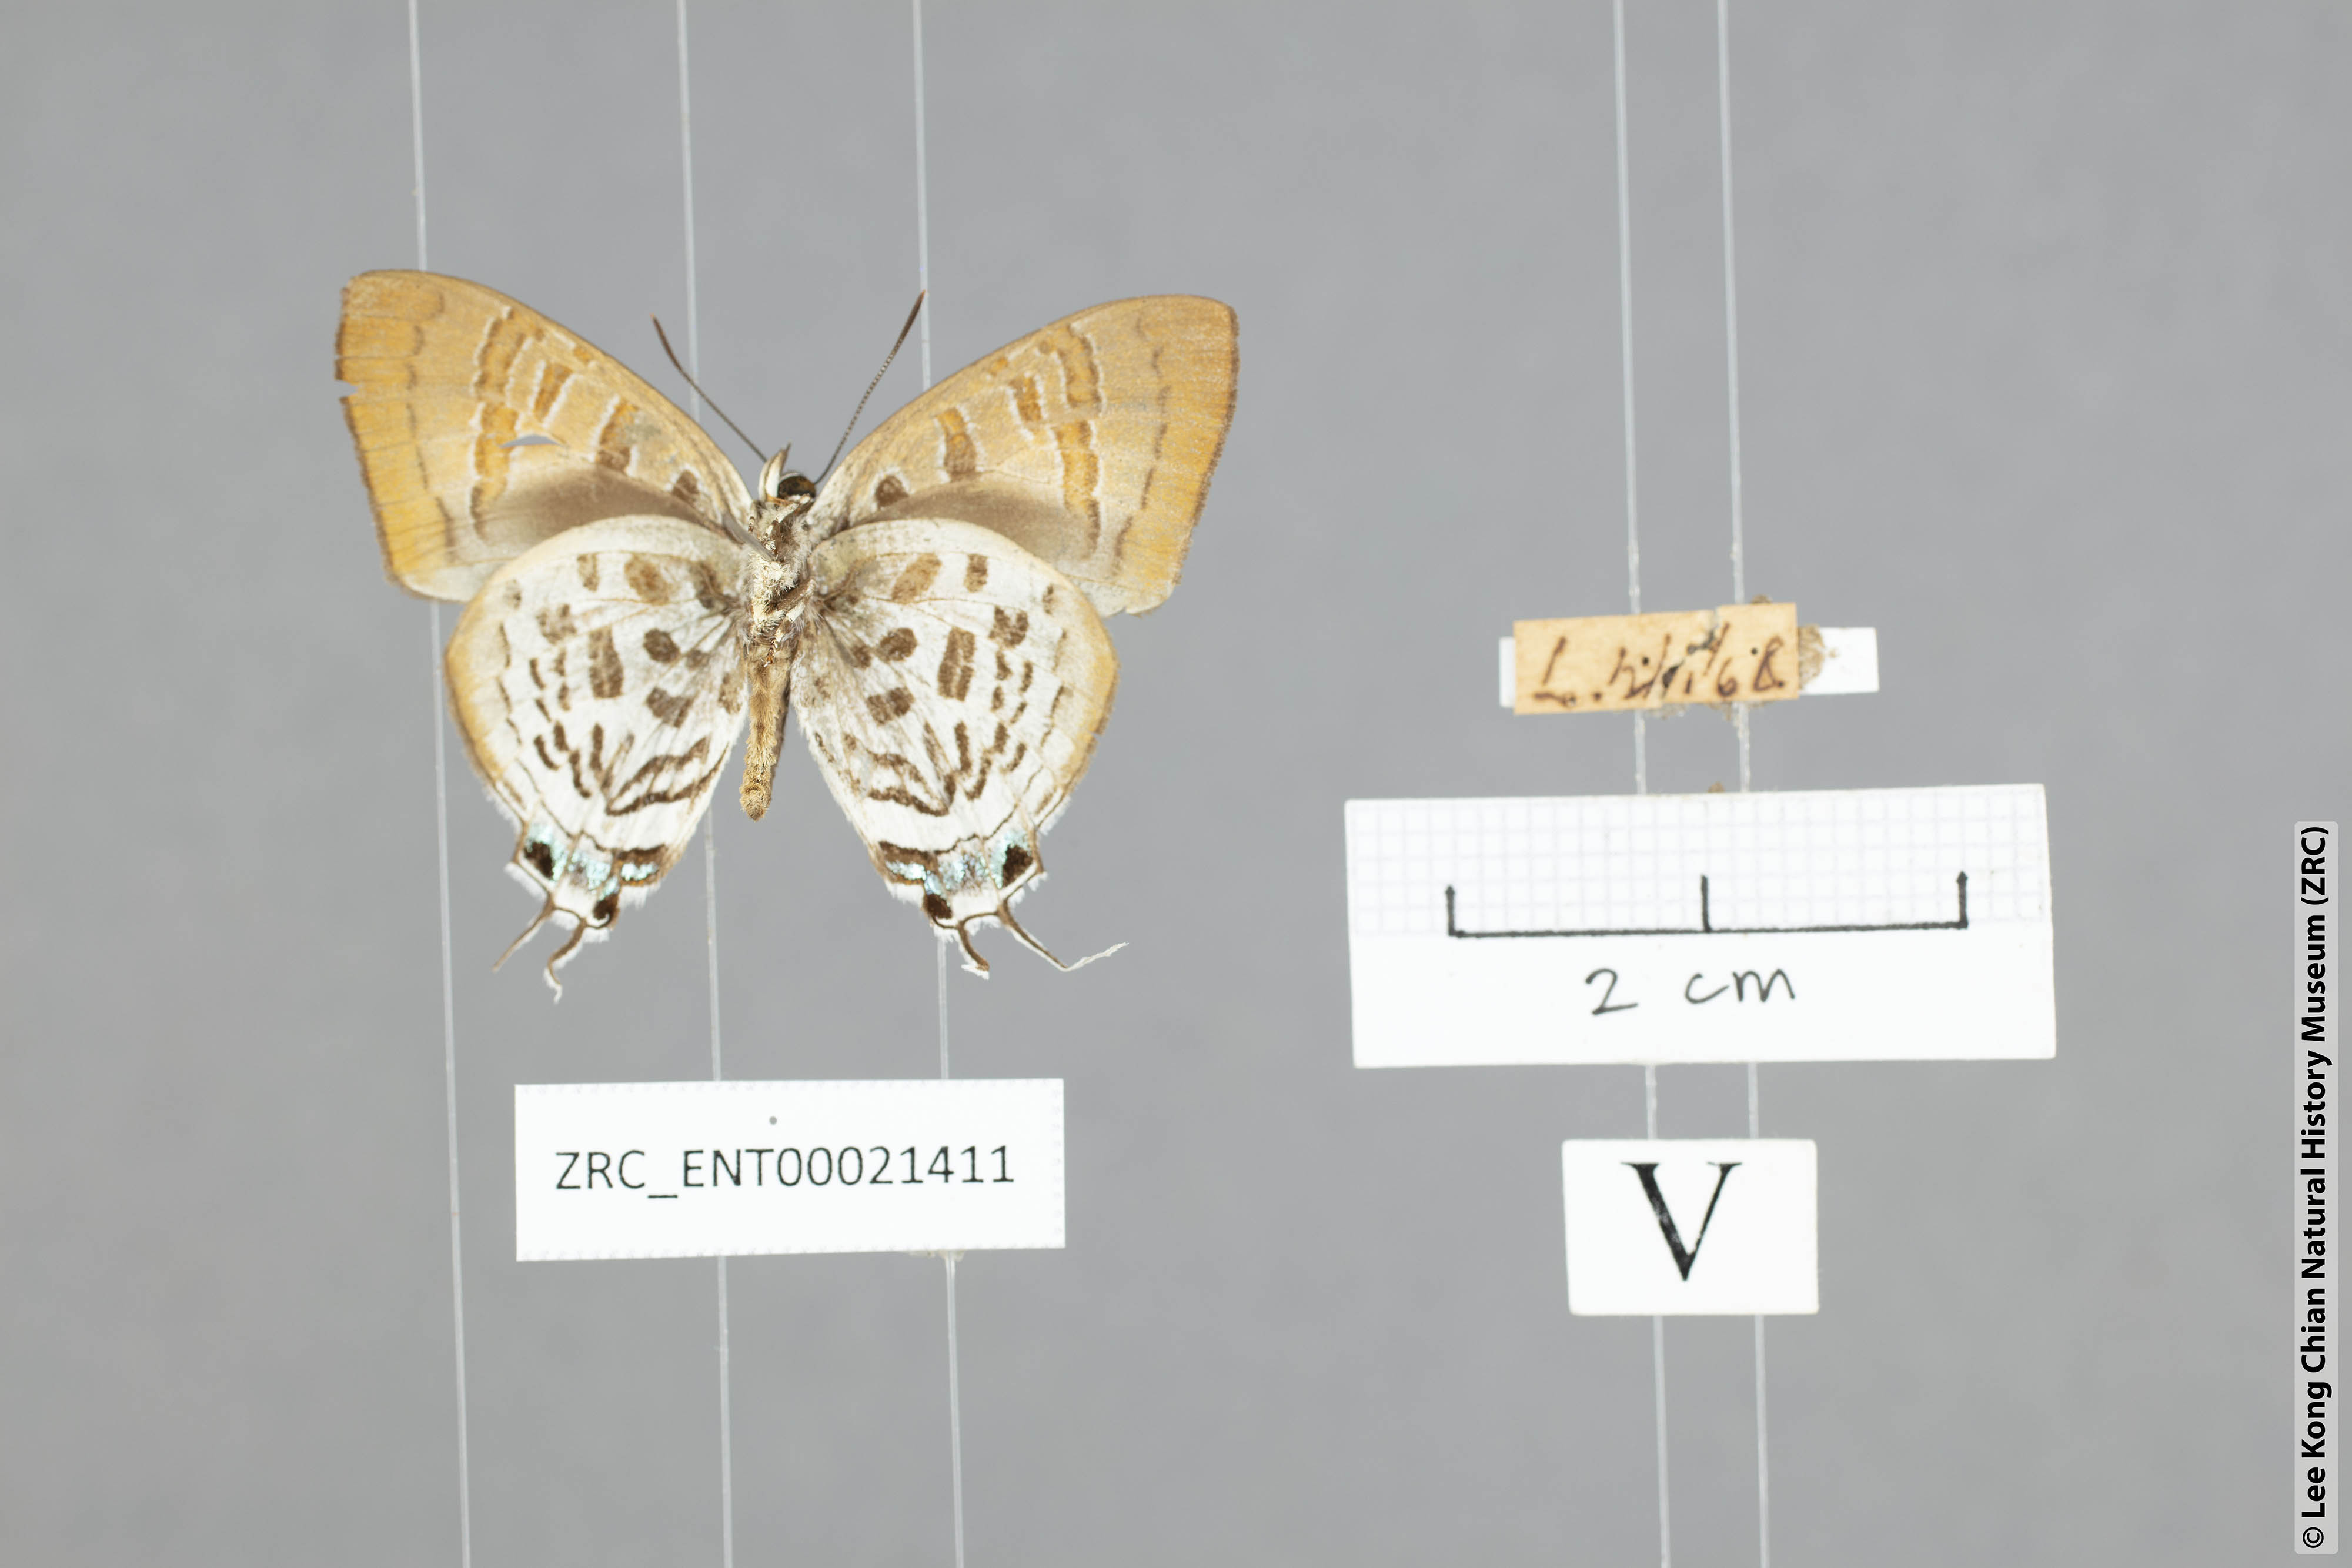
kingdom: Animalia
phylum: Arthropoda
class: Insecta
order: Lepidoptera
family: Lycaenidae
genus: Drupadia
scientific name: Drupadia theda
